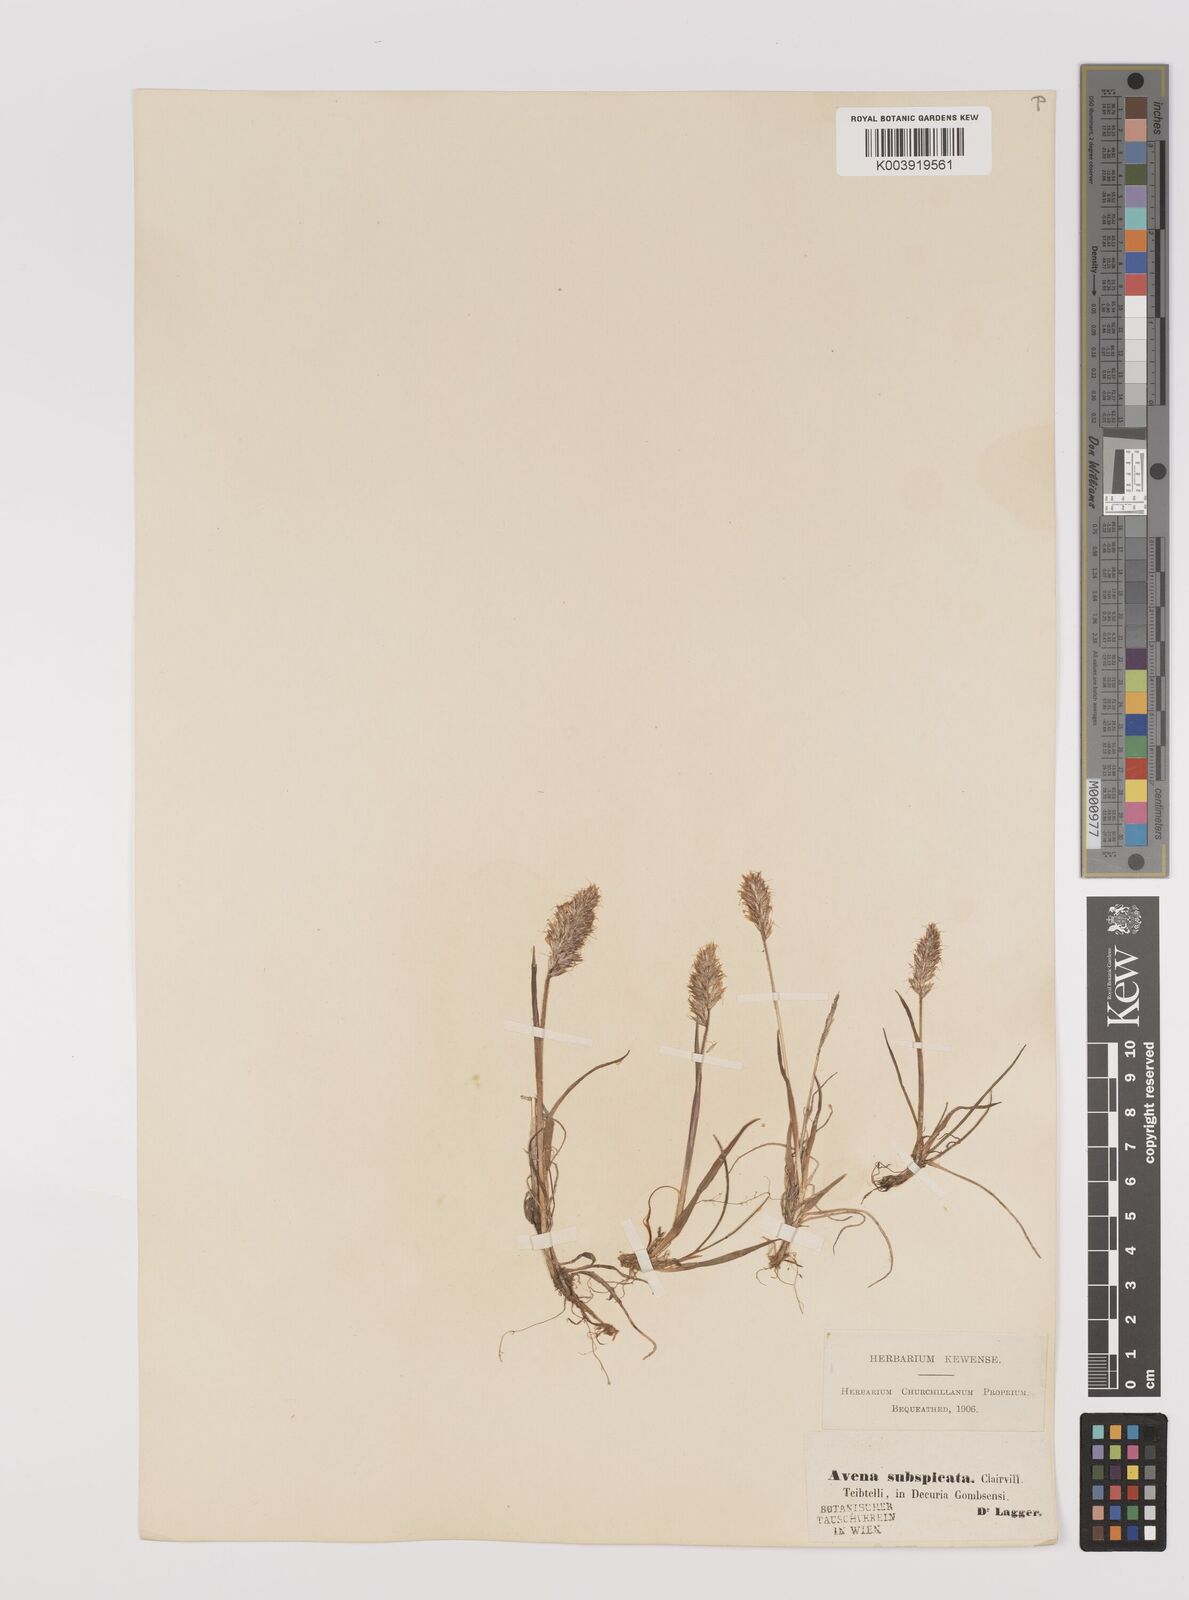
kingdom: Plantae
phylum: Tracheophyta
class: Liliopsida
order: Poales
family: Poaceae
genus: Koeleria
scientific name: Koeleria spicata
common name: Mountain trisetum
